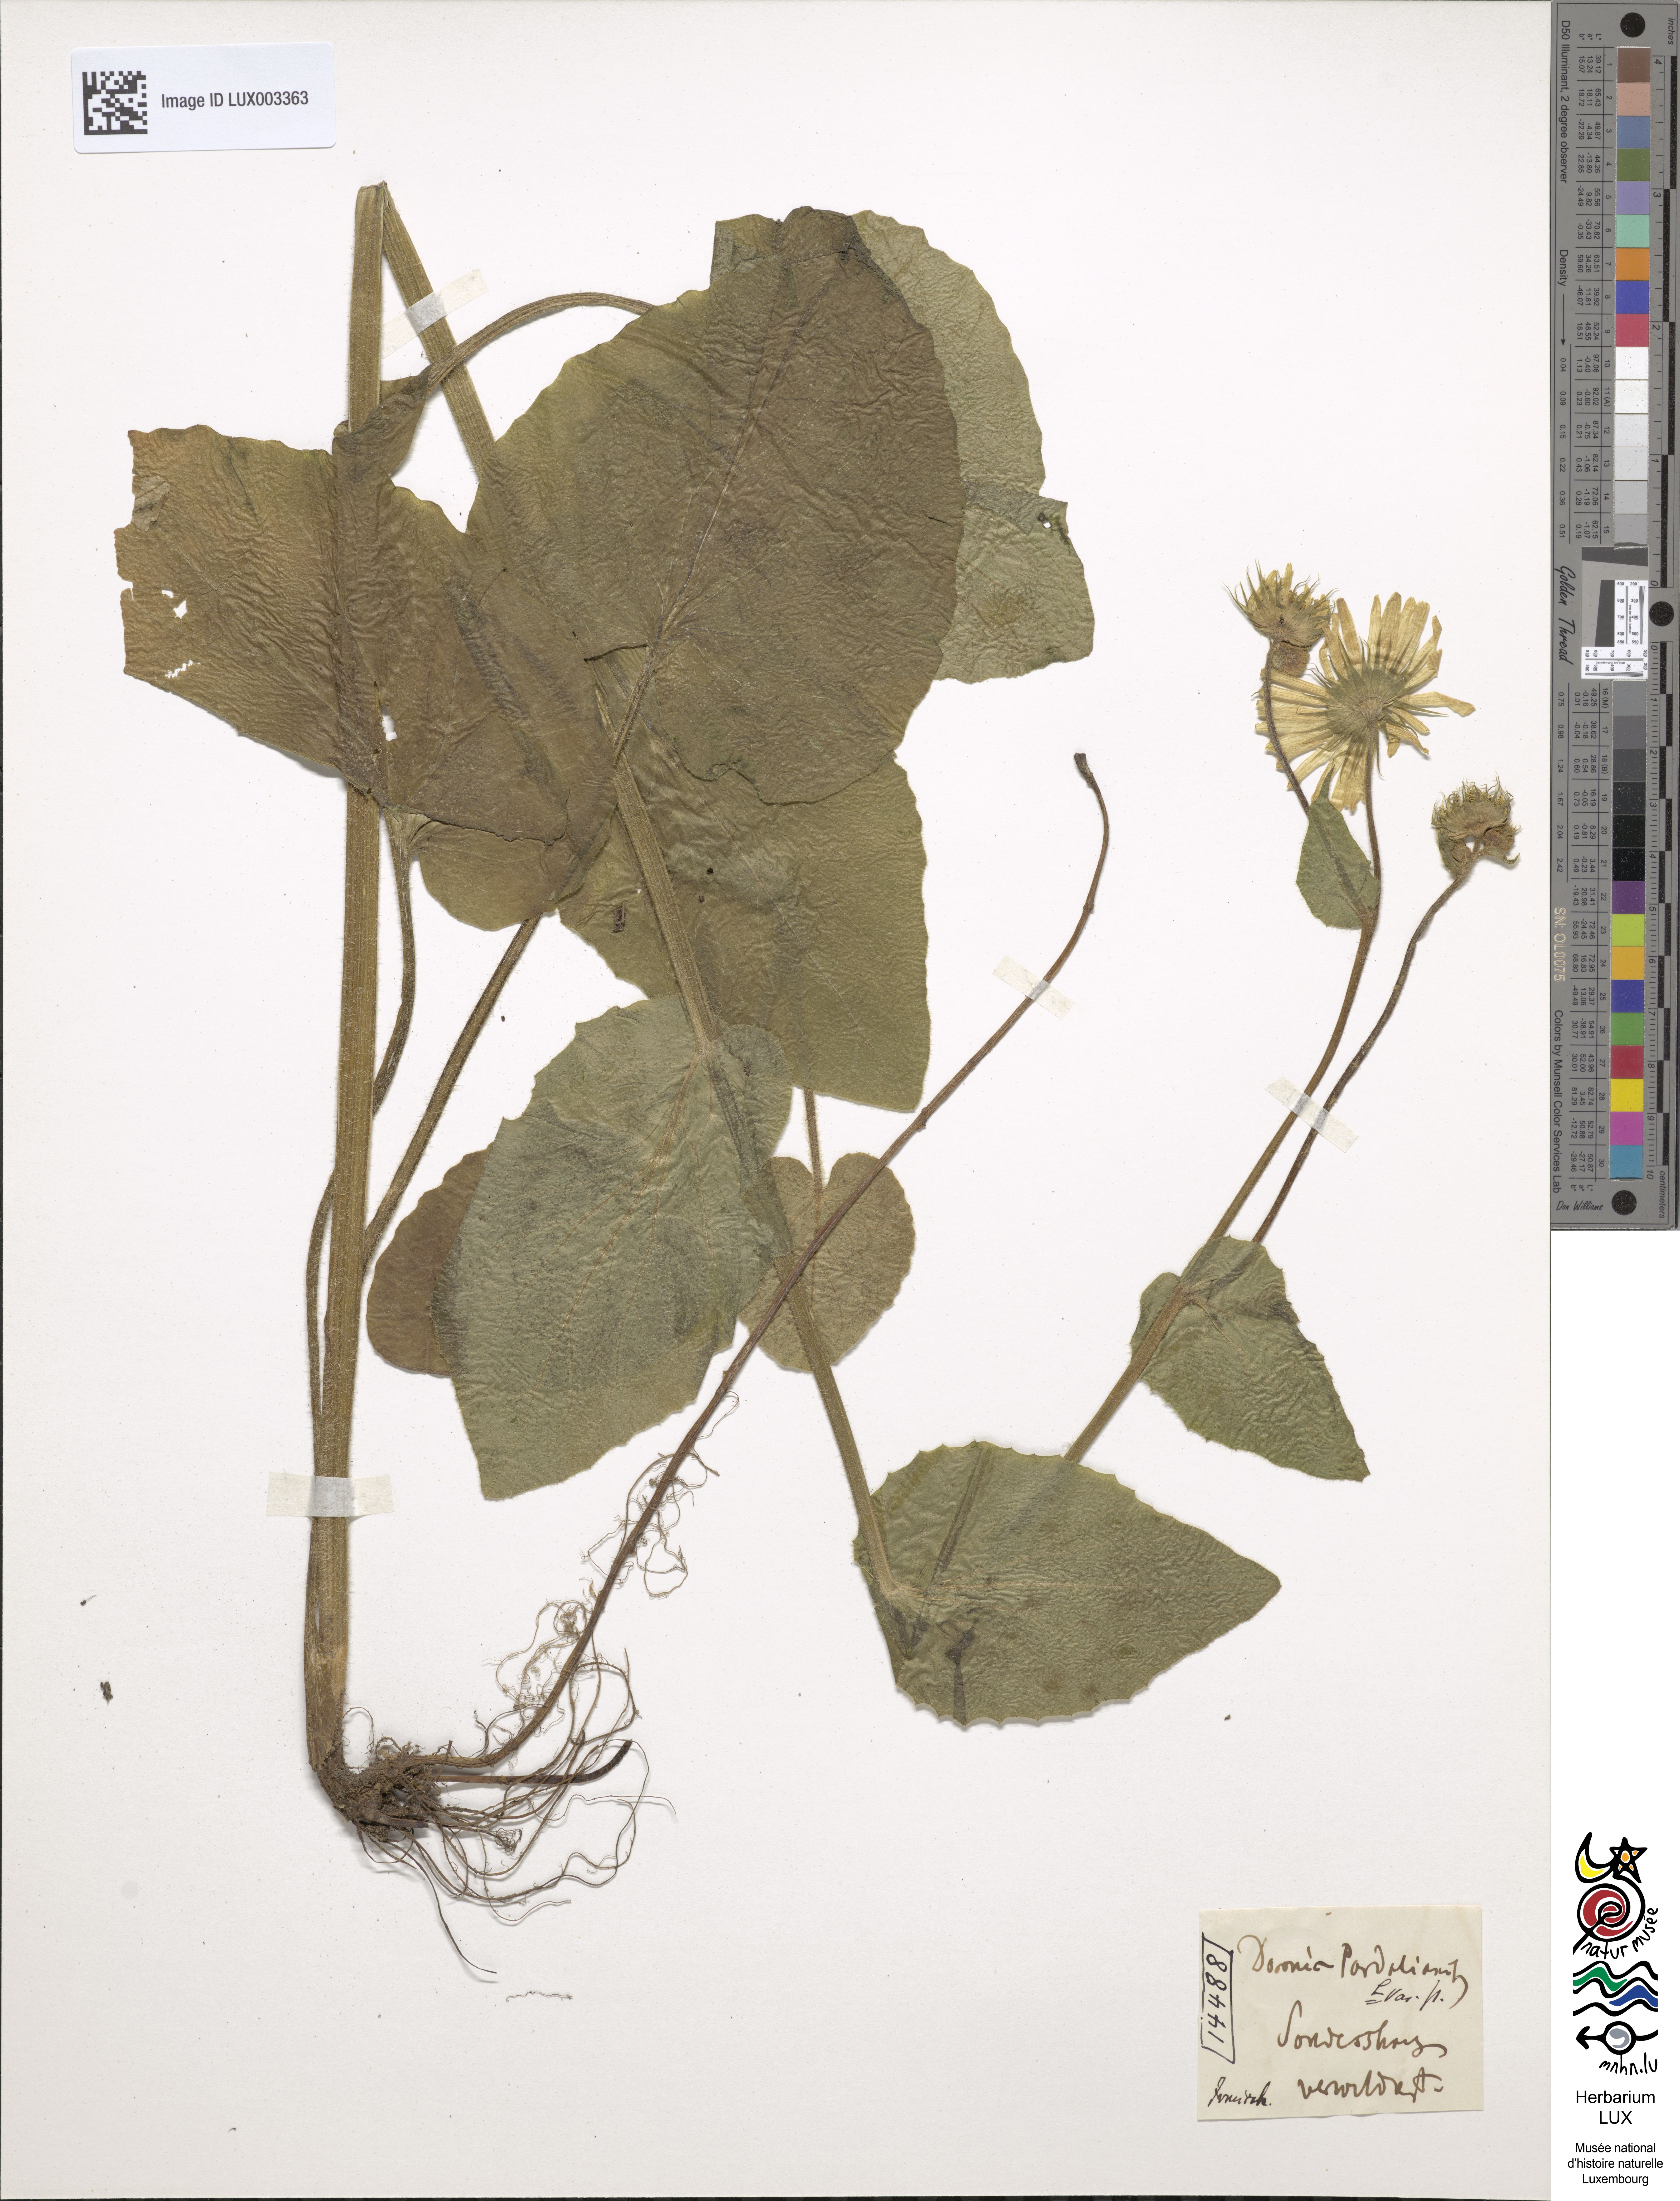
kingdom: Plantae
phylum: Tracheophyta
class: Magnoliopsida
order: Asterales
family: Asteraceae
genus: Doronicum
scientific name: Doronicum pardalianches
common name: Leopard's-bane
